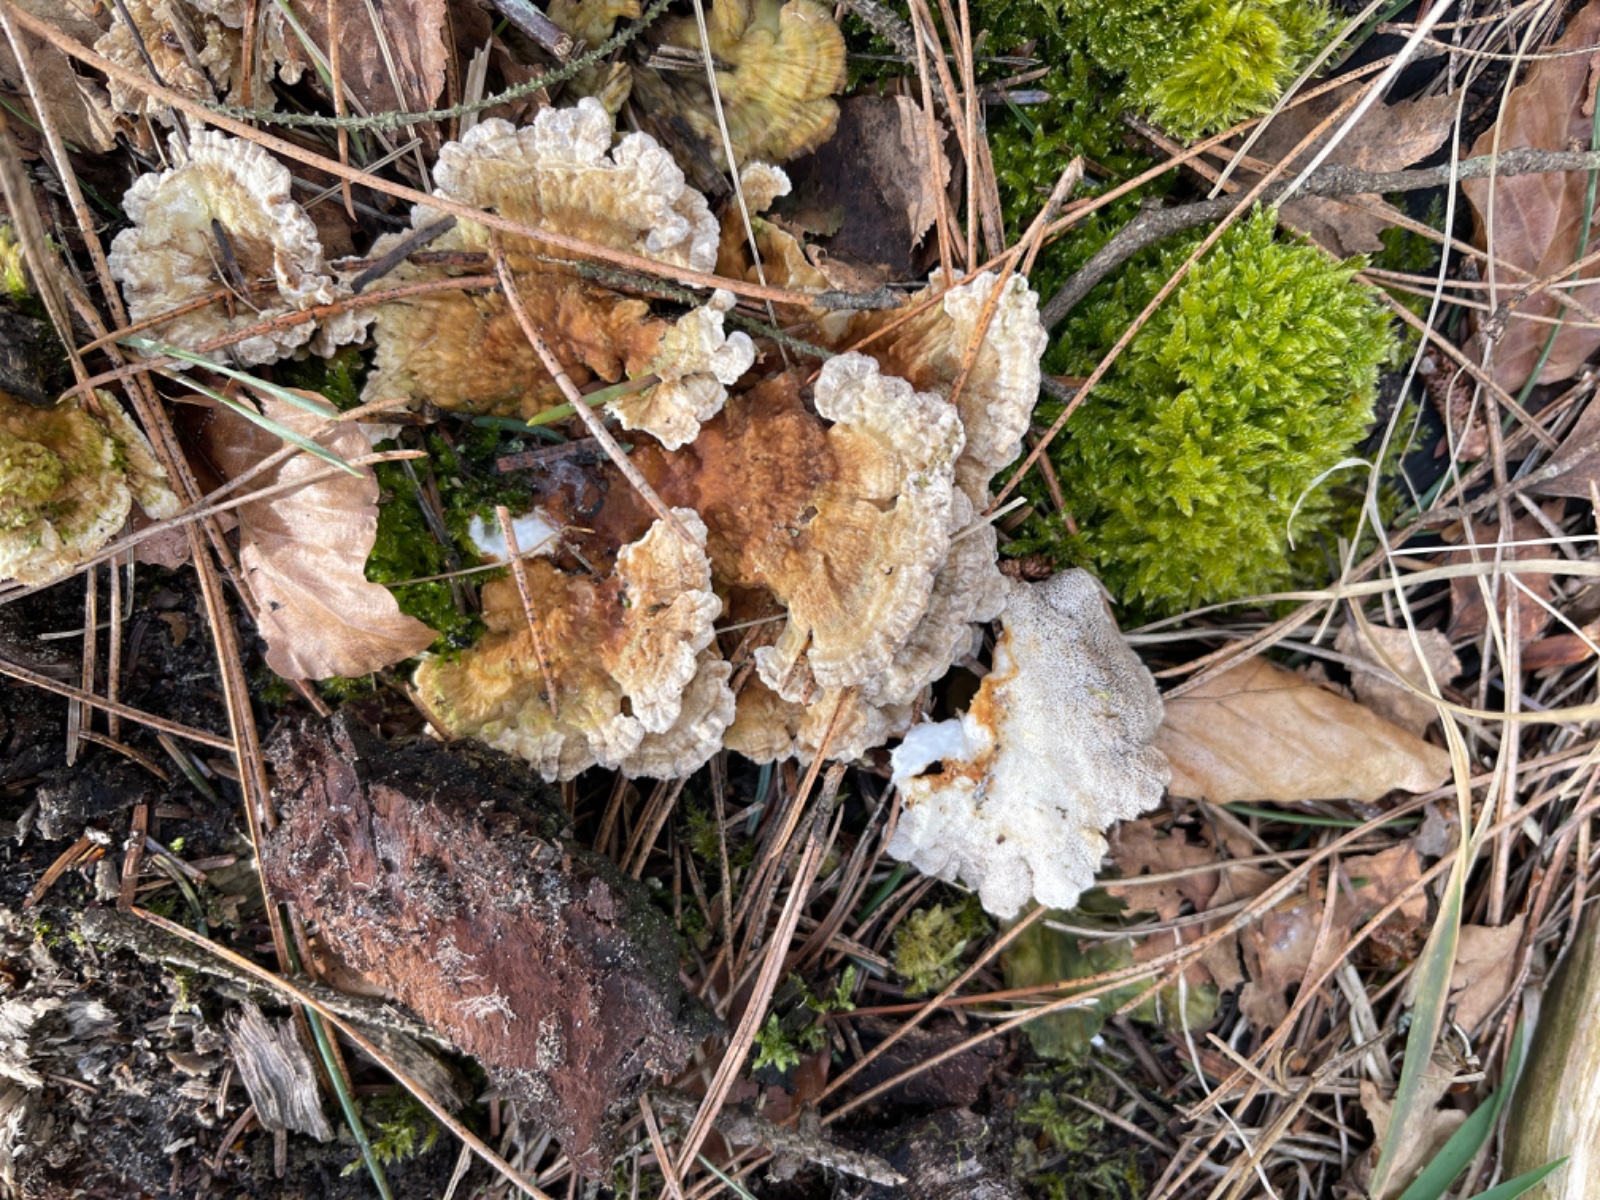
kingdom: Fungi
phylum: Basidiomycota
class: Agaricomycetes
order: Polyporales
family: Polyporaceae
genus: Trametes
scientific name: Trametes
